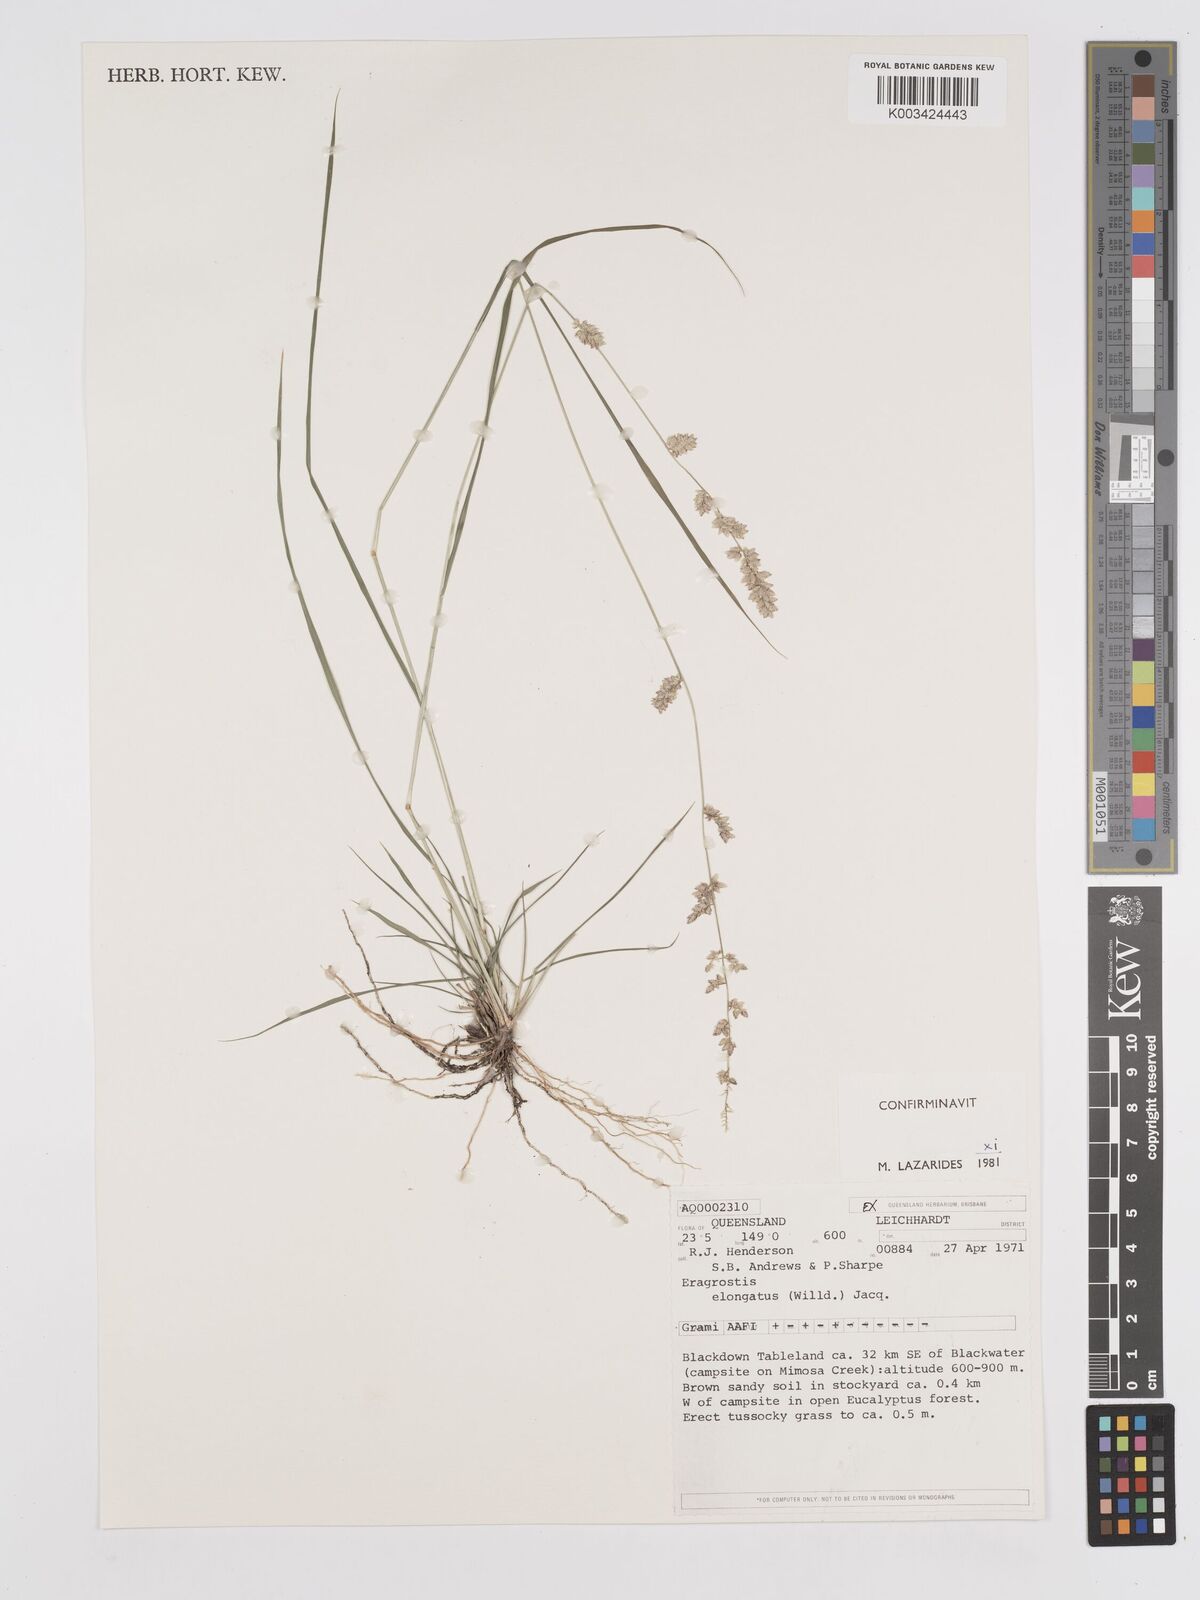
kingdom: Plantae
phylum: Tracheophyta
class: Liliopsida
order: Poales
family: Poaceae
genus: Eragrostis
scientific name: Eragrostis elongata
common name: Long lovegrass
